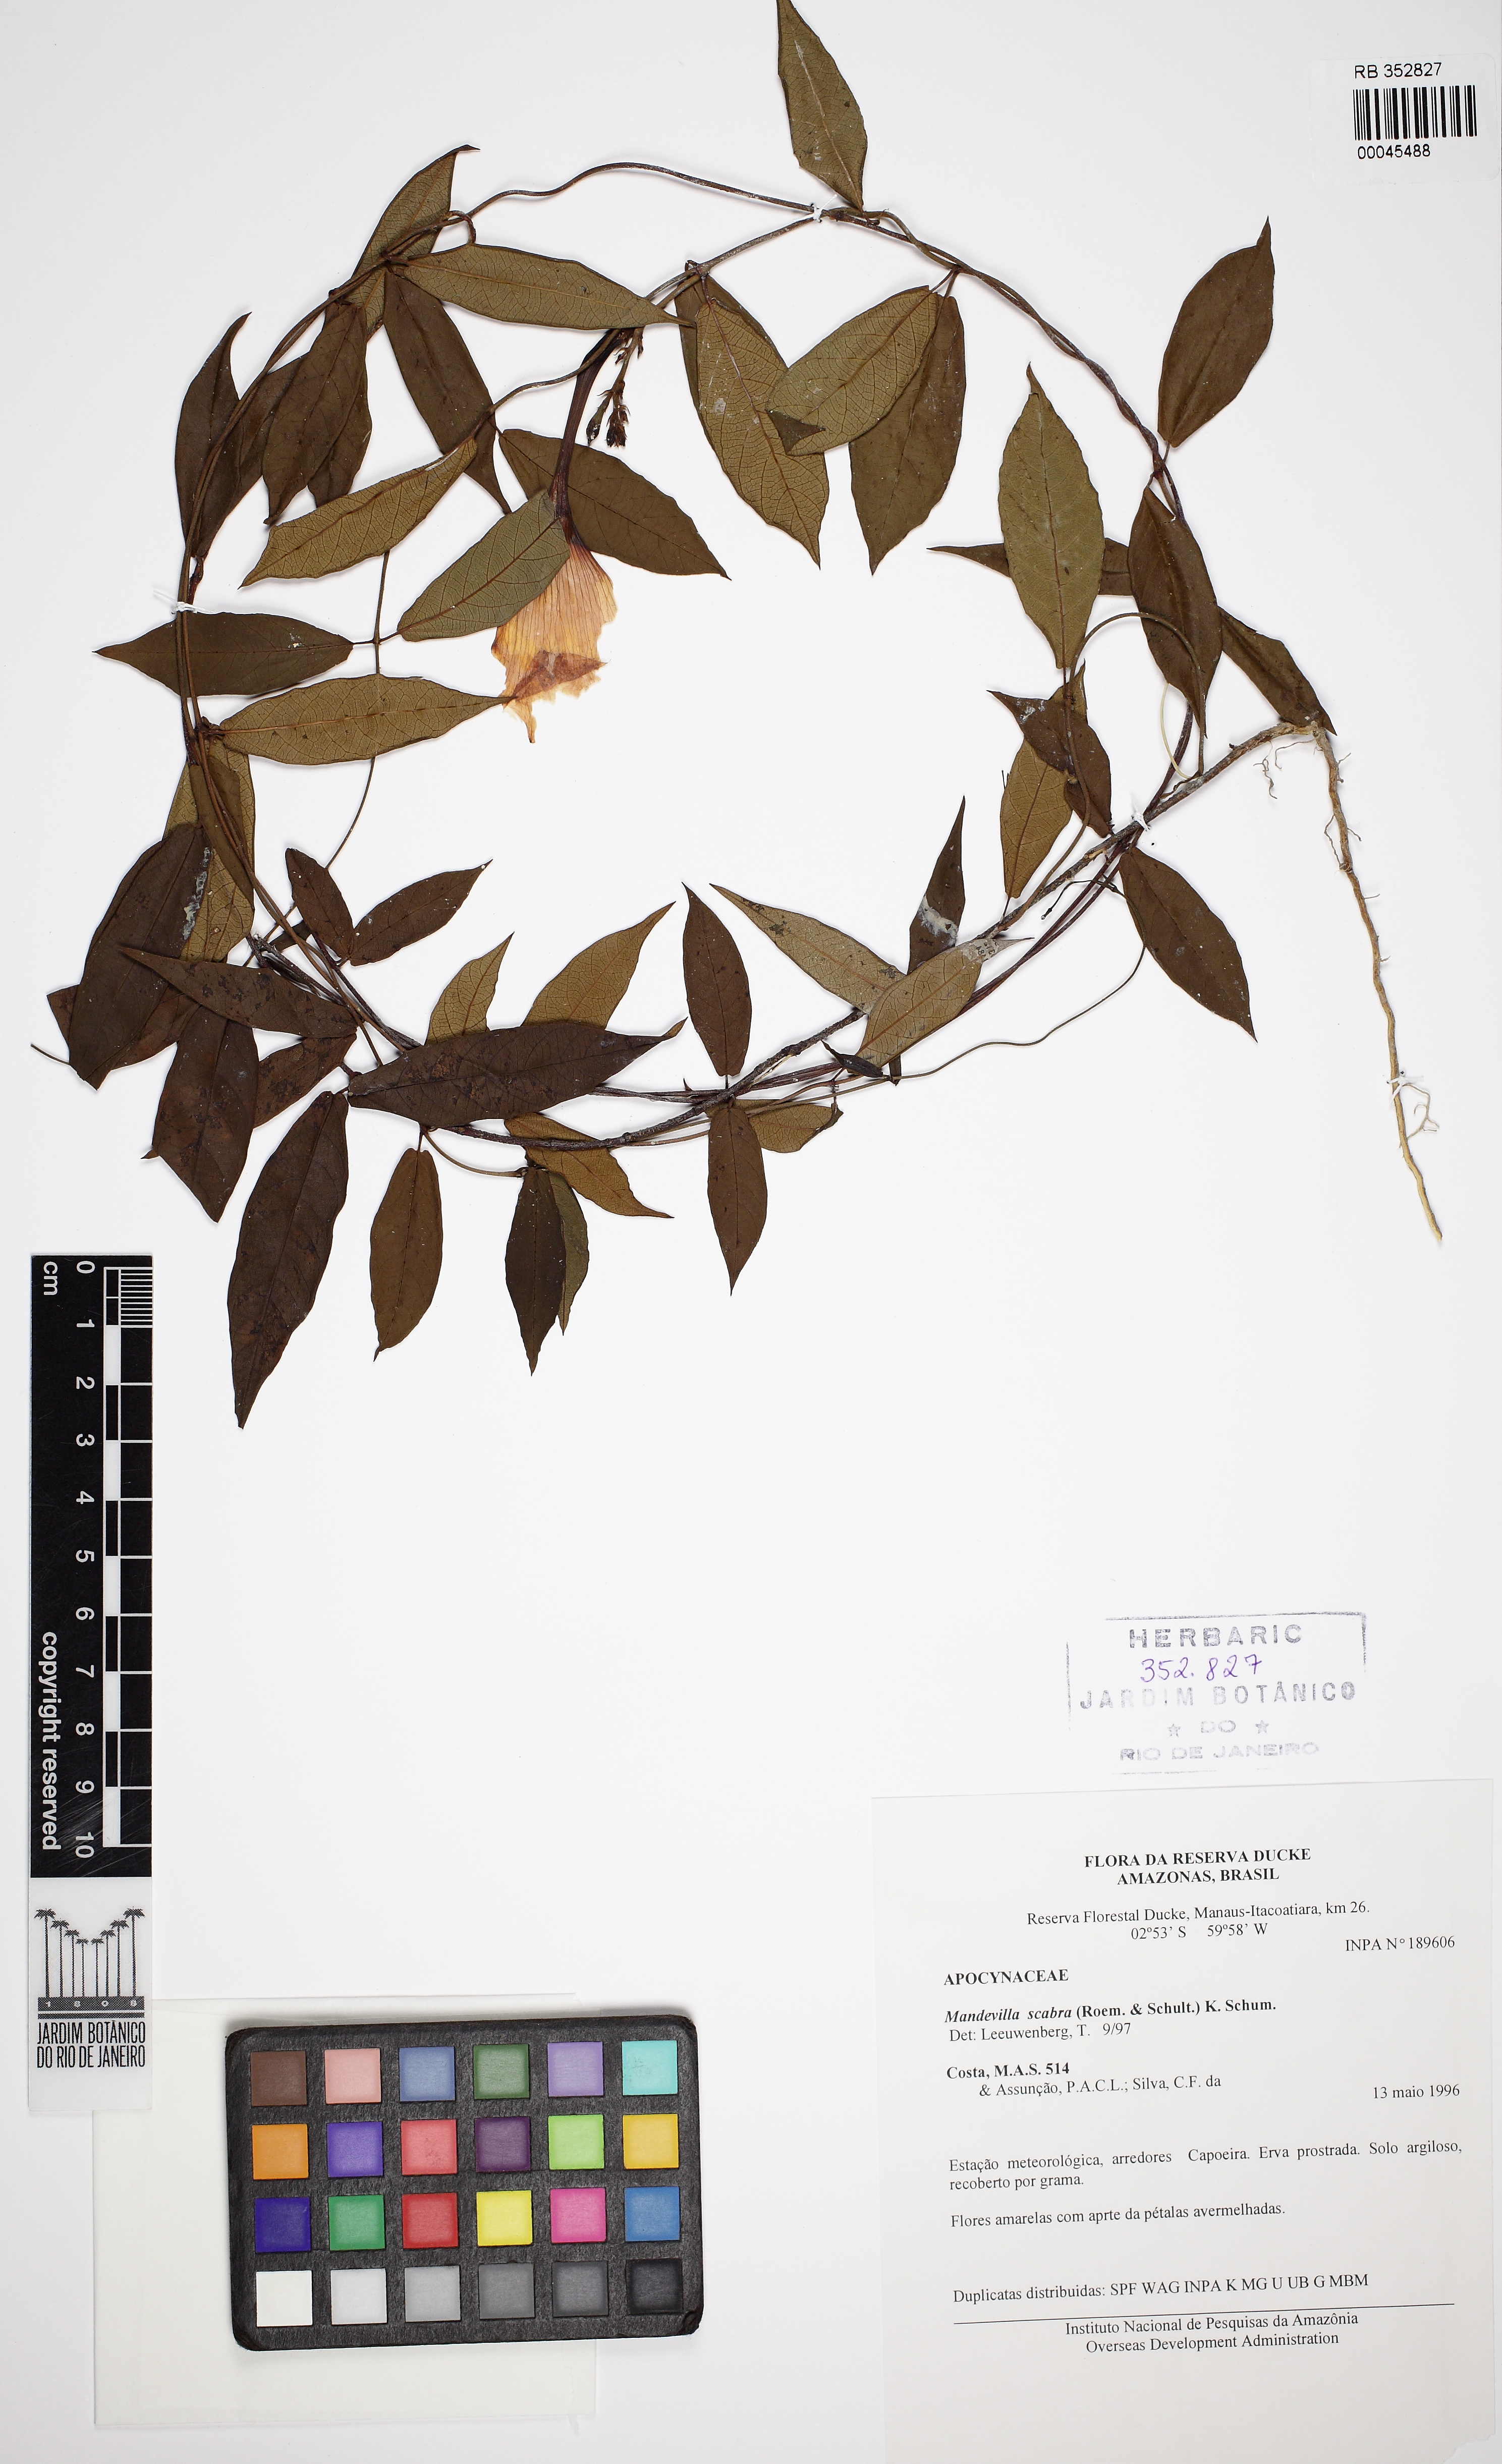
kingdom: Plantae
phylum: Tracheophyta
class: Magnoliopsida
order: Gentianales
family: Apocynaceae
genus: Mandevilla
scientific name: Mandevilla scabra
